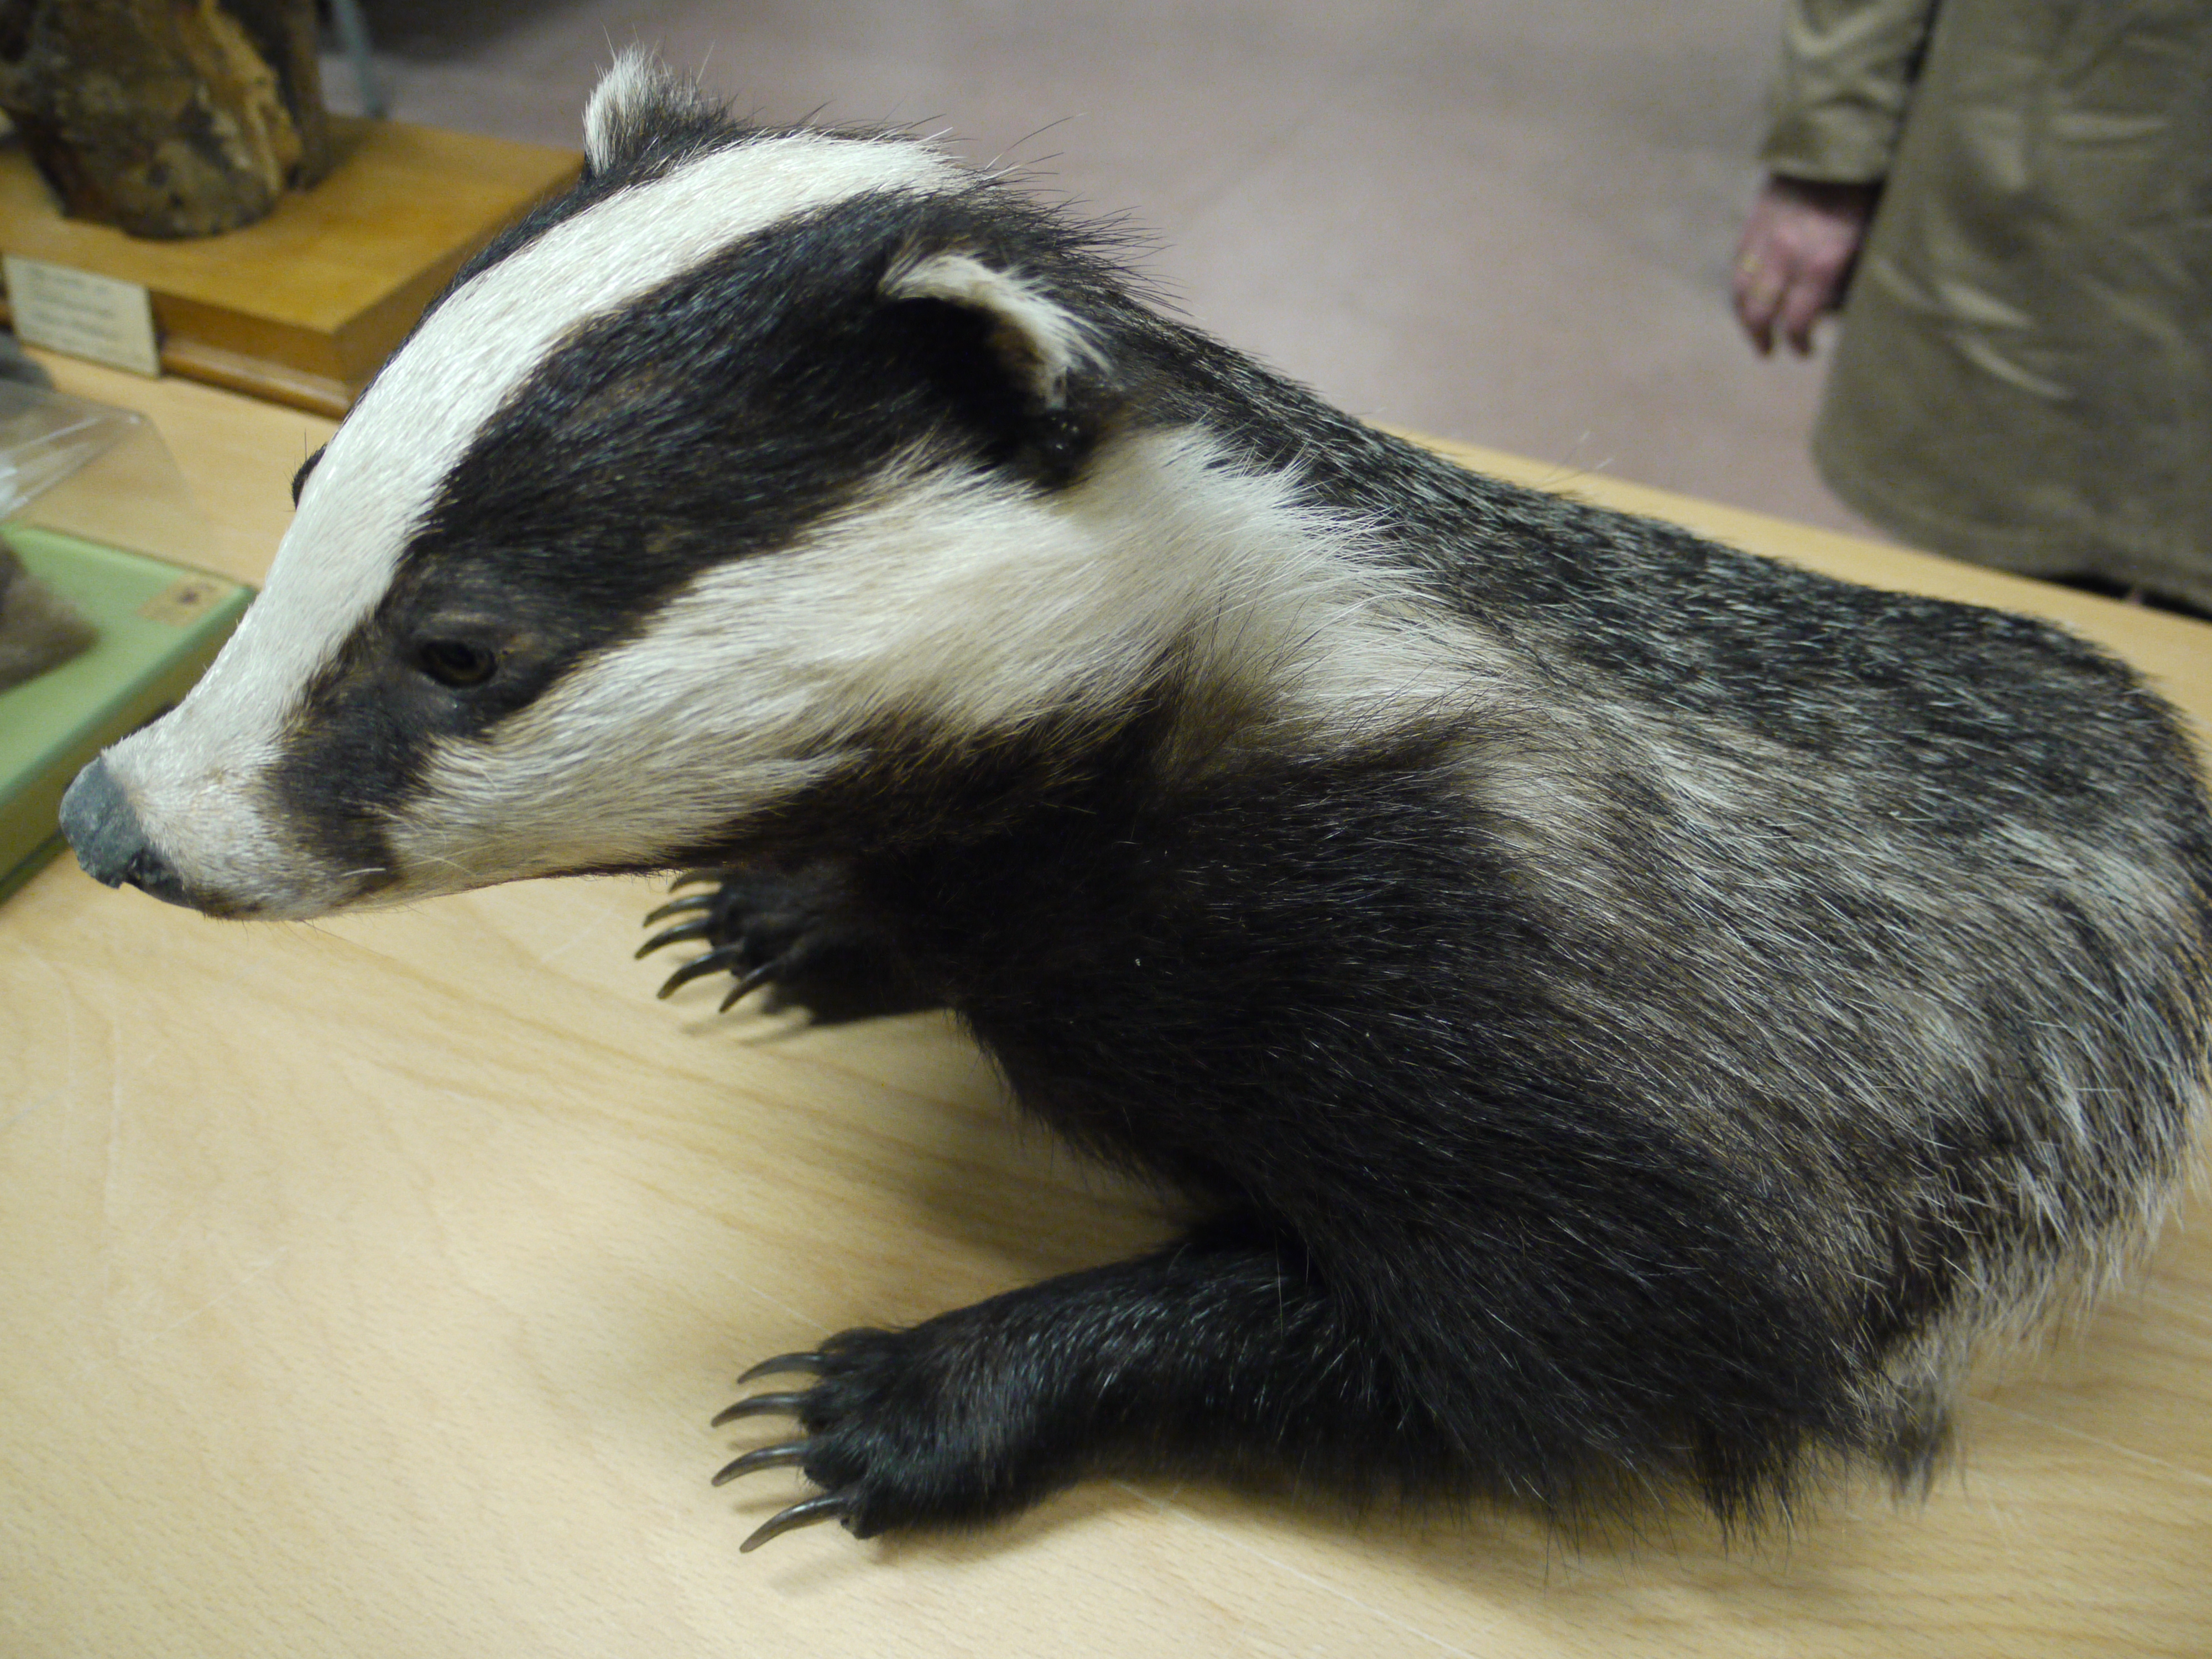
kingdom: Animalia
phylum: Chordata
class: Mammalia
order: Carnivora
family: Mustelidae
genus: Meles
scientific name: Meles meles
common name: Eurasian badger
